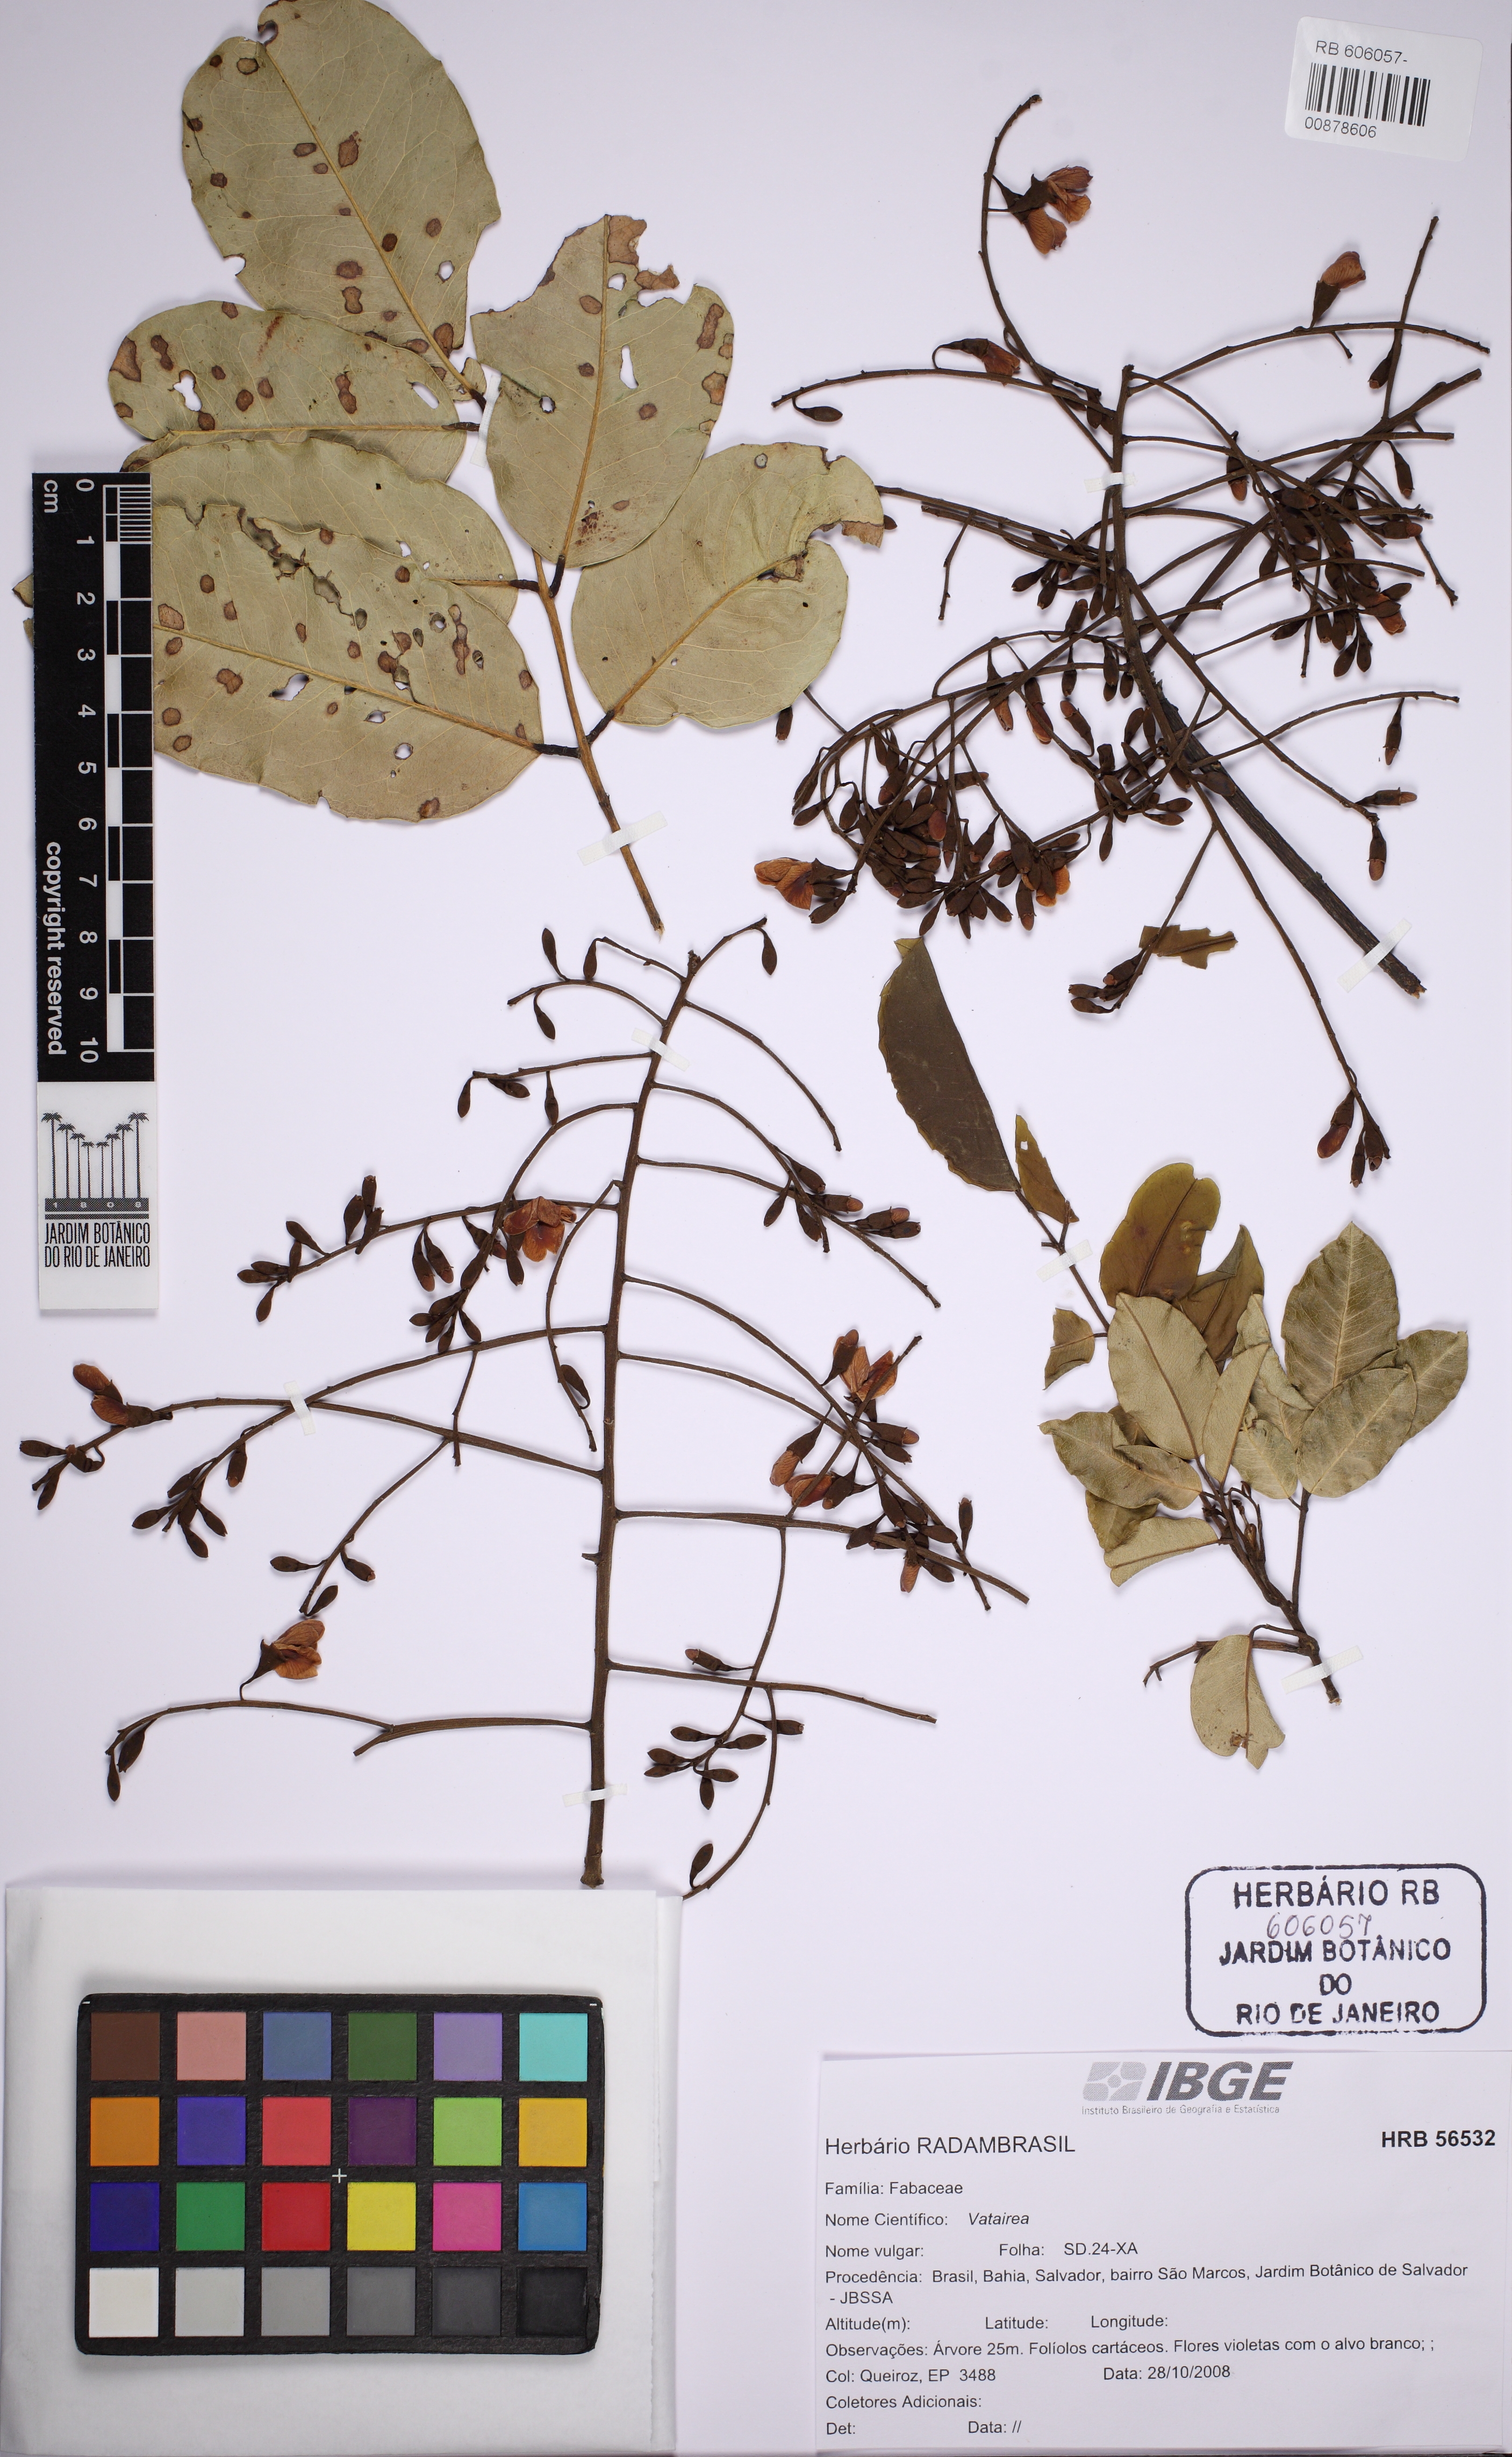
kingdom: Plantae
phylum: Tracheophyta
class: Magnoliopsida
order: Fabales
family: Fabaceae
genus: Vatairea
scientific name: Vatairea heteroptera
